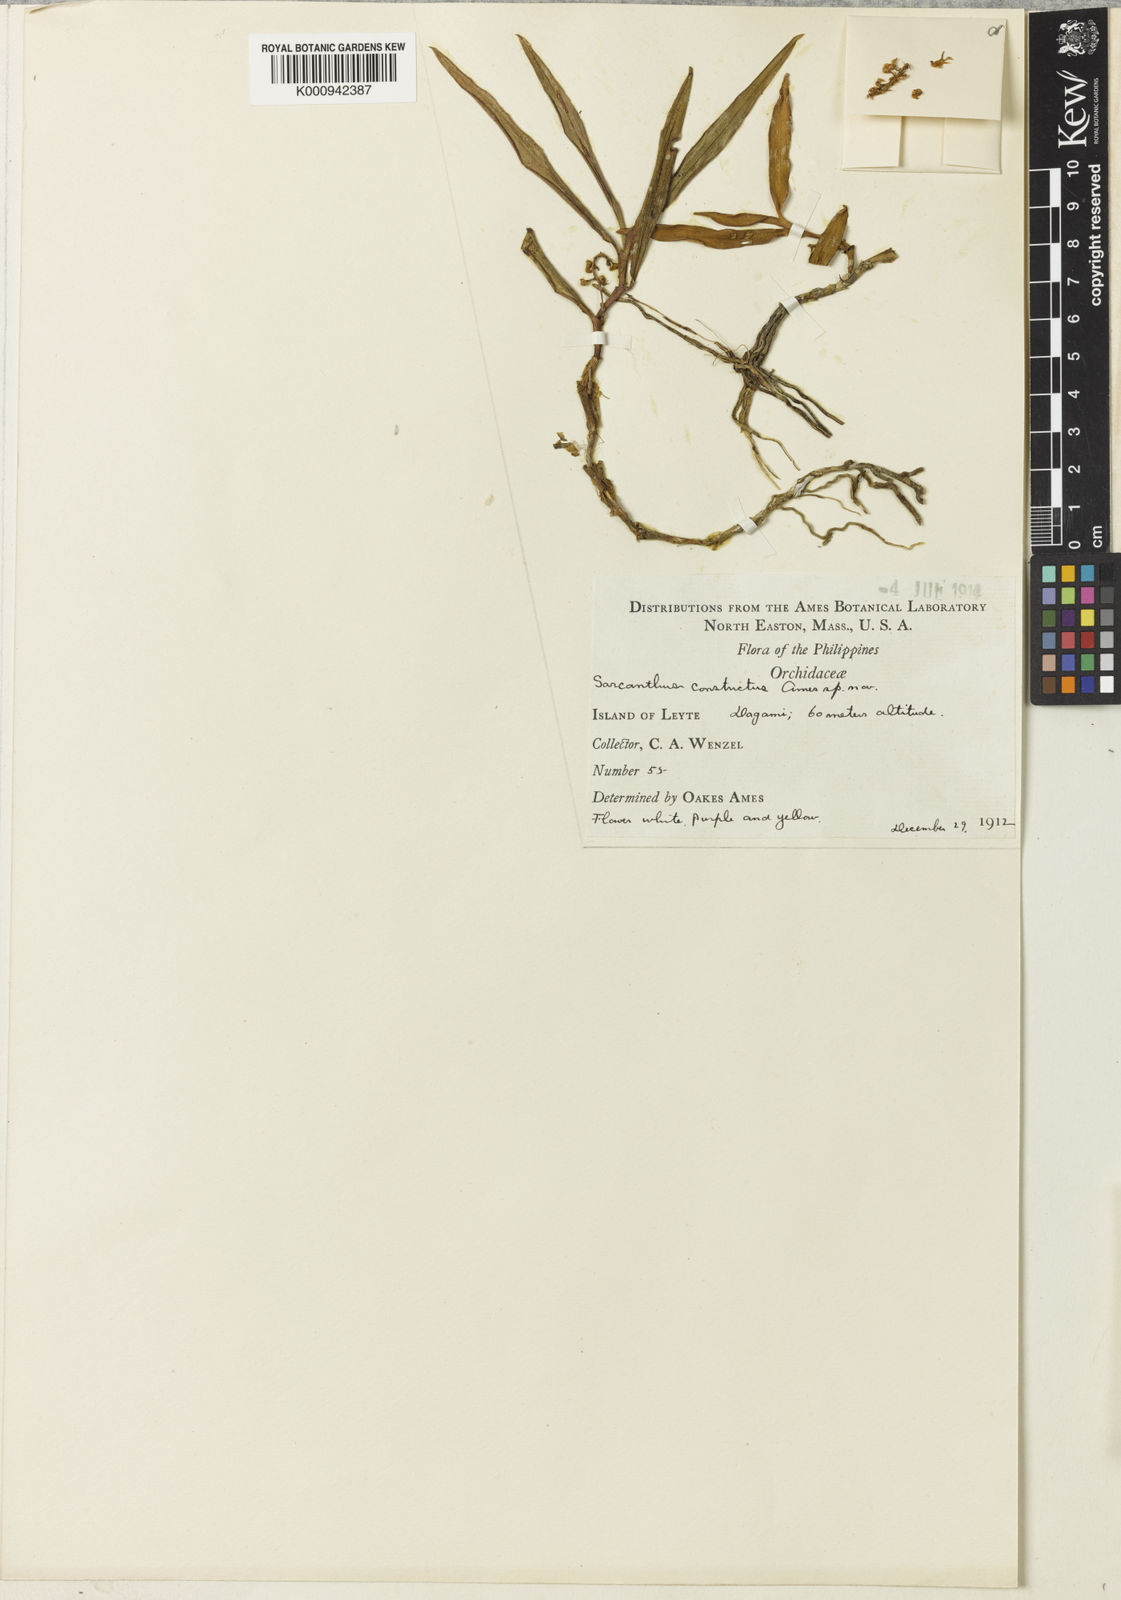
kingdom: Plantae
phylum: Tracheophyta
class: Liliopsida
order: Asparagales
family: Orchidaceae
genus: Cleisostoma
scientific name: Cleisostoma
